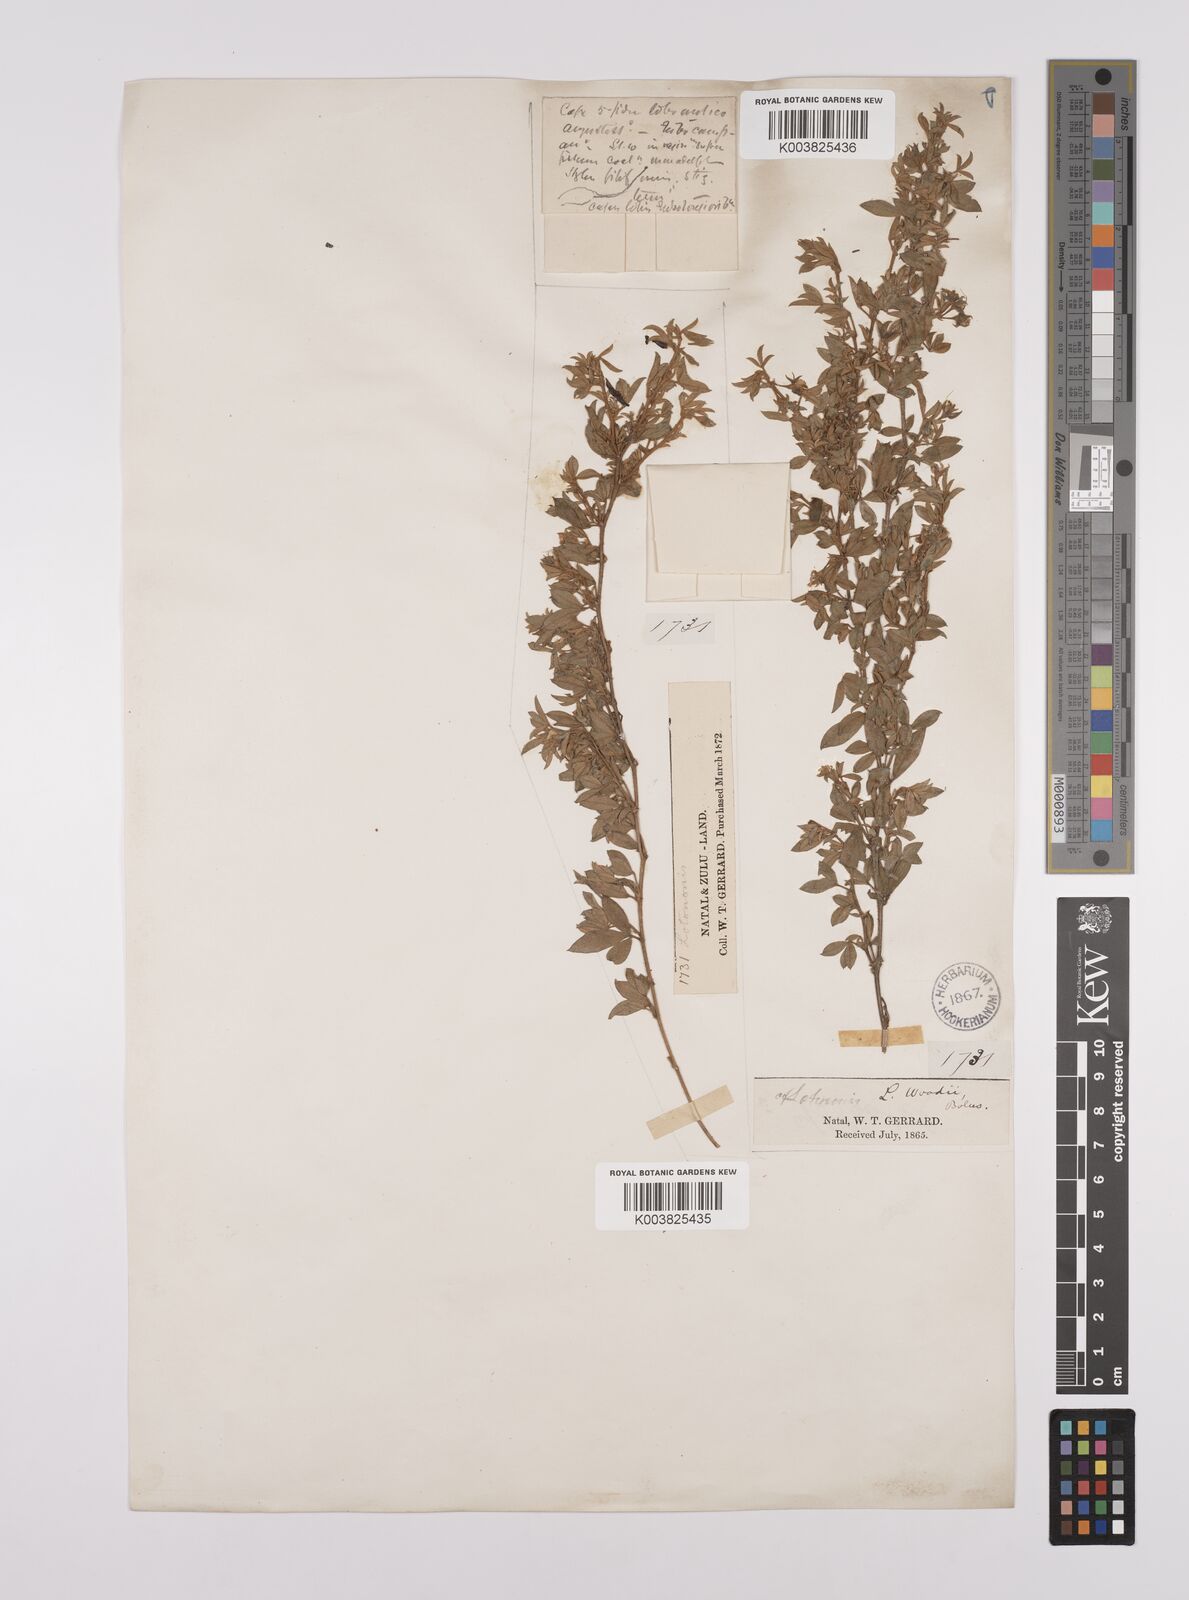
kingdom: Plantae
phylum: Tracheophyta
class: Magnoliopsida
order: Fabales
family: Fabaceae
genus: Lotononis
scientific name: Lotononis laxa
